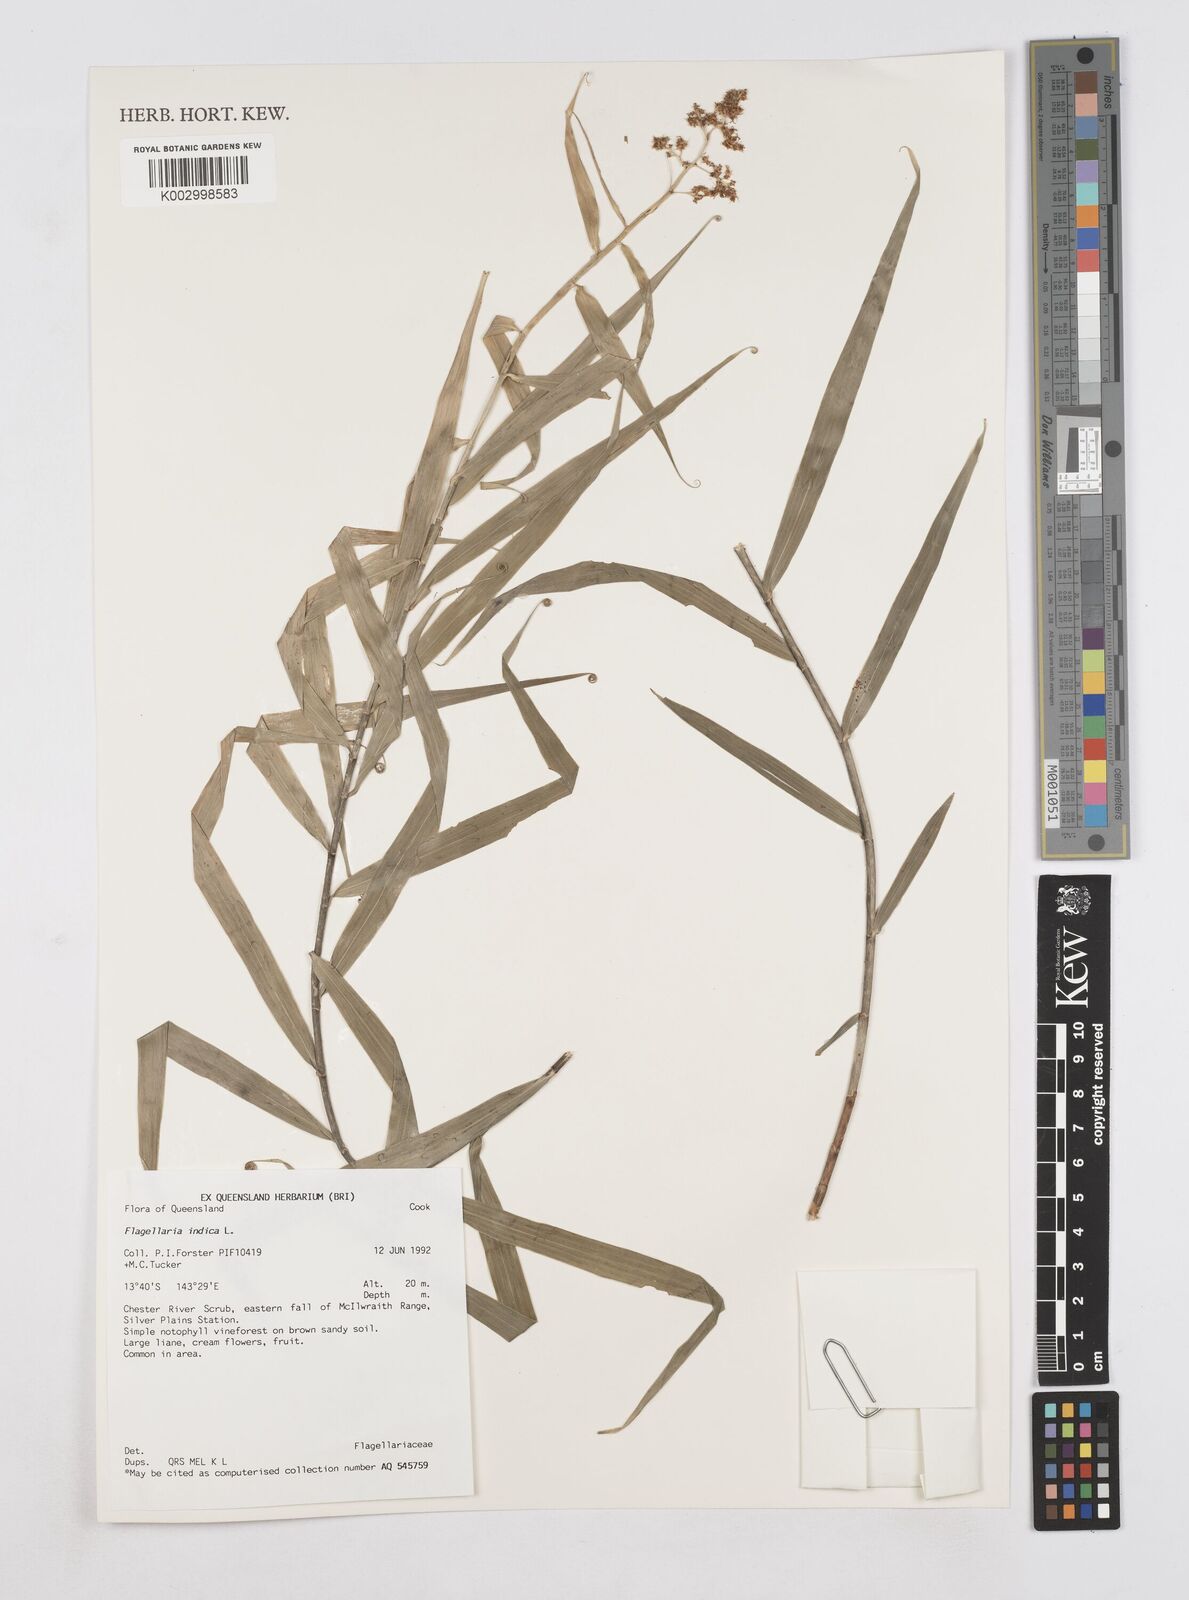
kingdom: Plantae
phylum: Tracheophyta
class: Liliopsida
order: Poales
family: Flagellariaceae
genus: Flagellaria
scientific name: Flagellaria indica
